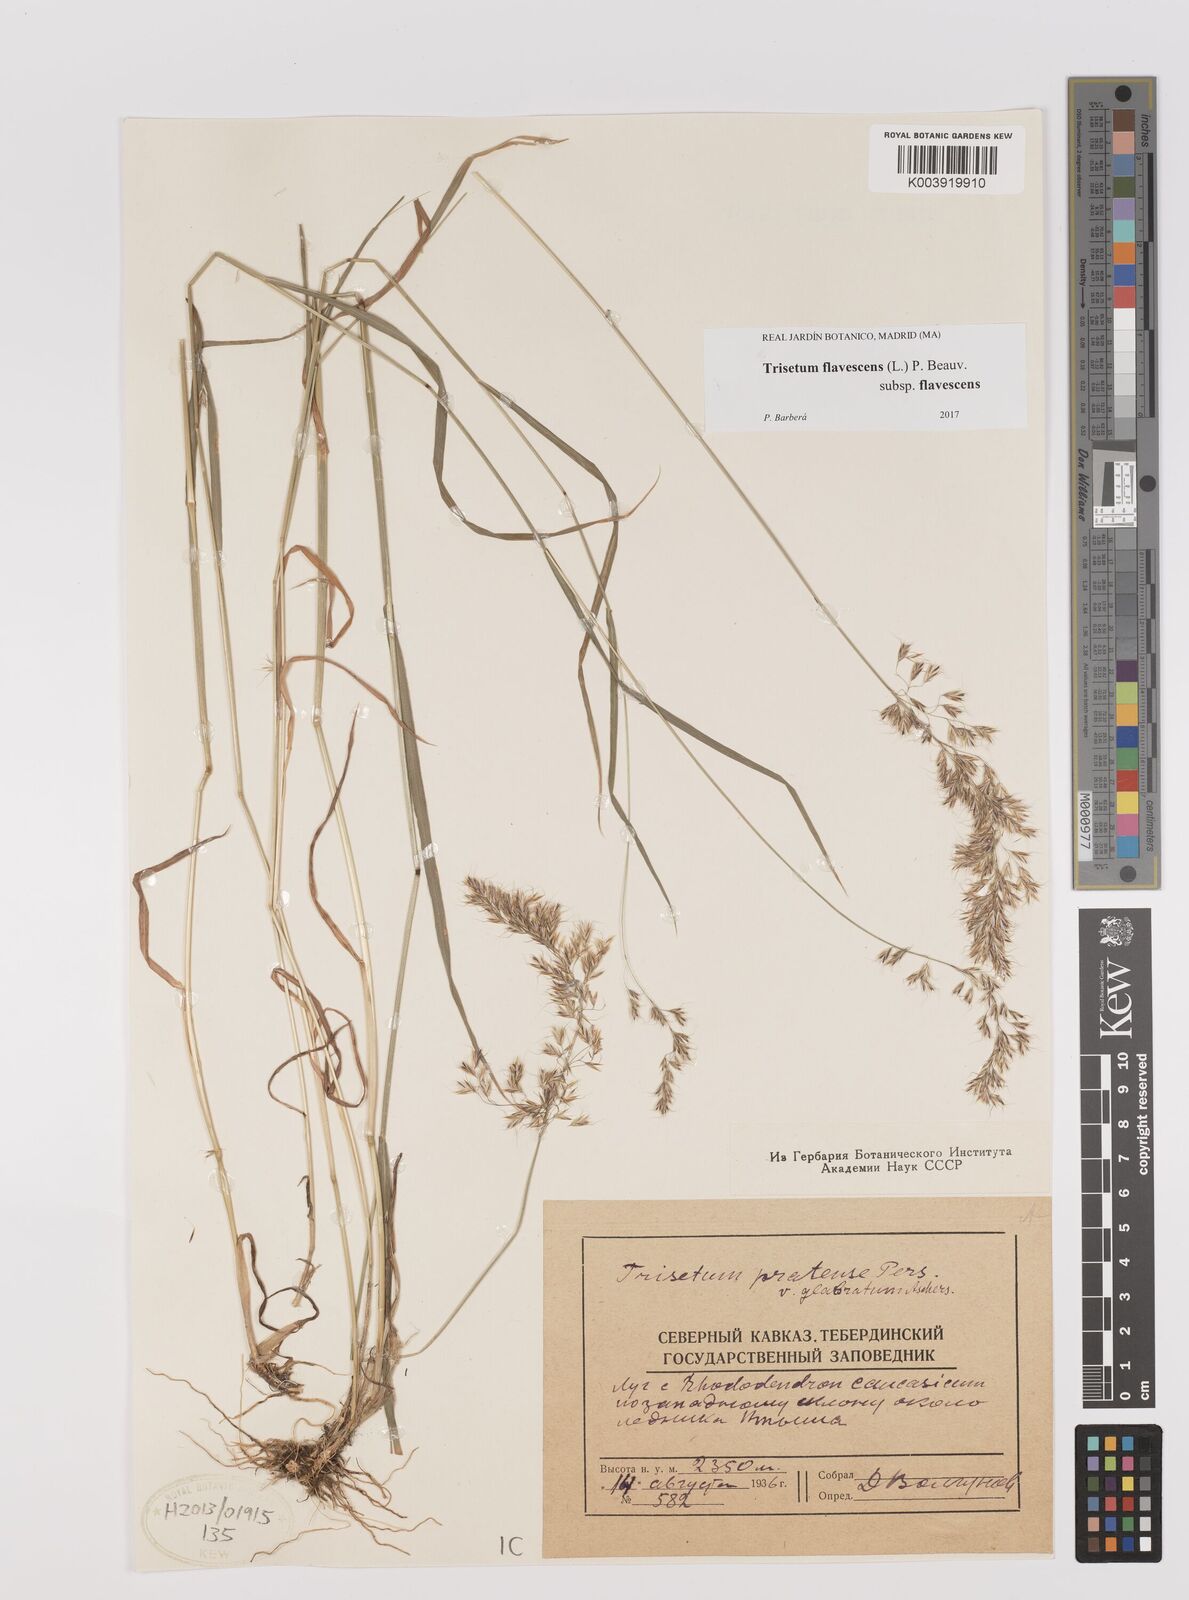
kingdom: Plantae
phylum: Tracheophyta
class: Liliopsida
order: Poales
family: Poaceae
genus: Trisetum
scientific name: Trisetum flavescens
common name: Yellow oat-grass
